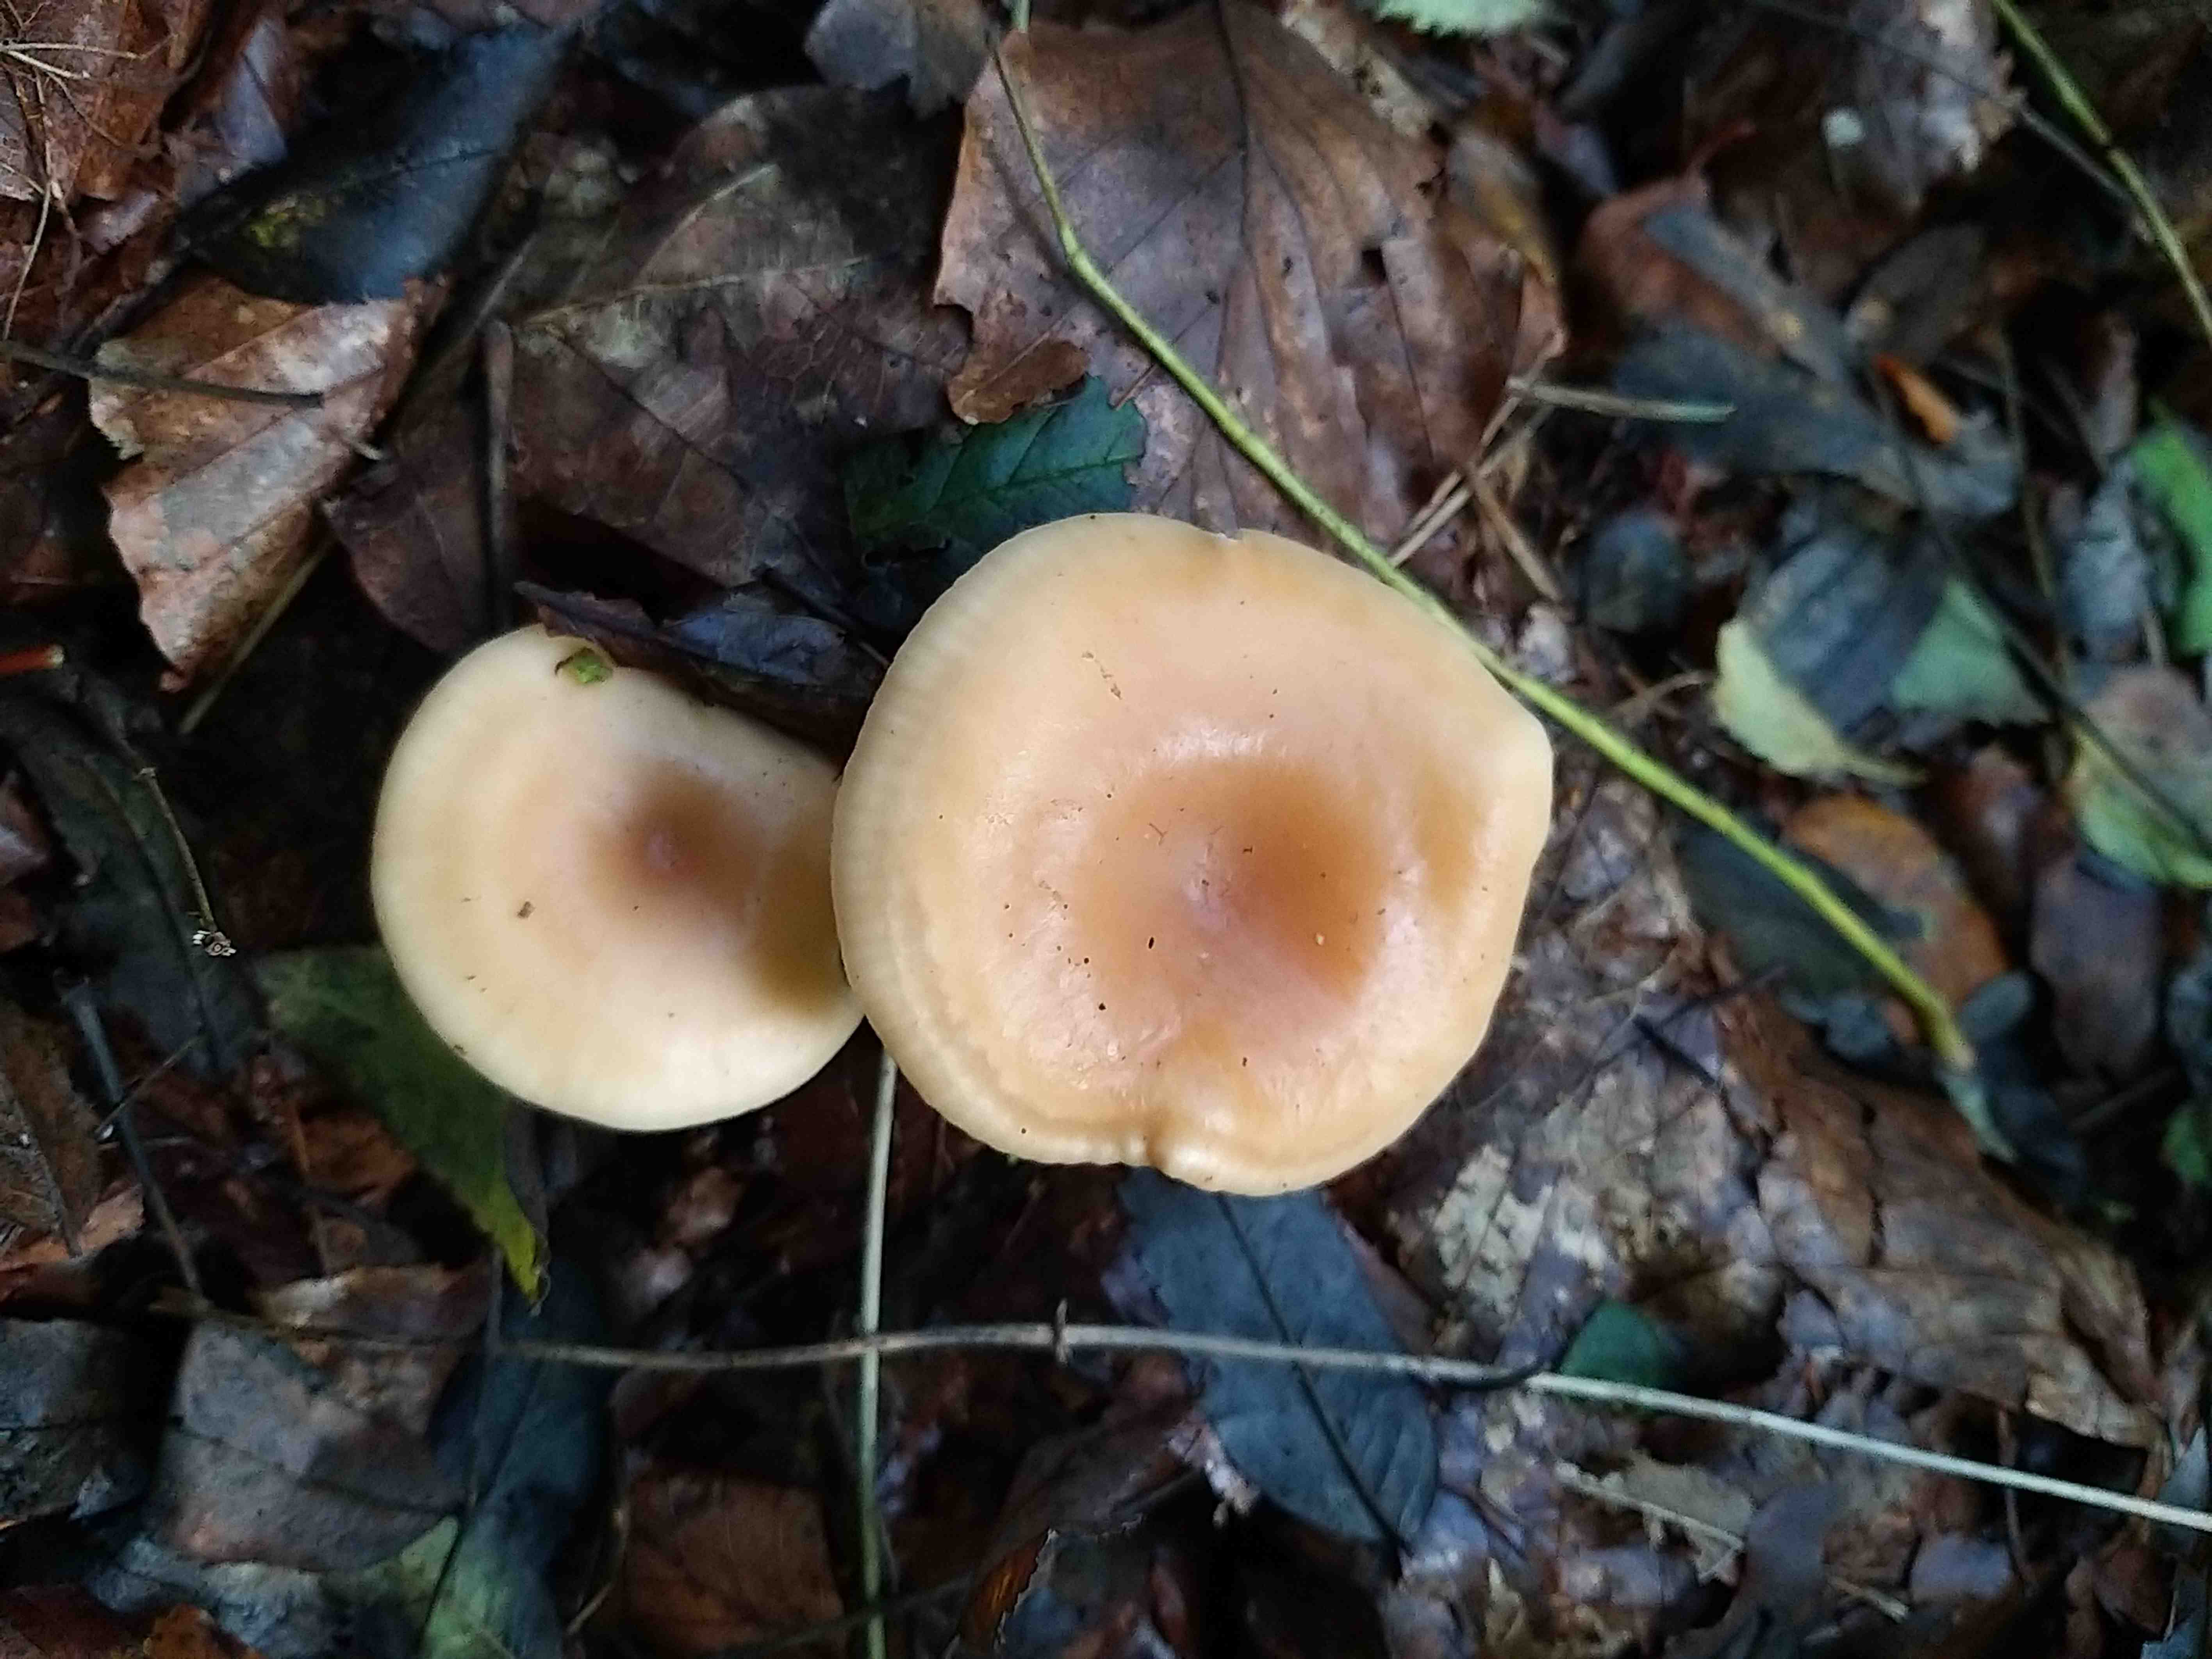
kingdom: Fungi
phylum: Basidiomycota
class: Agaricomycetes
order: Agaricales
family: Tricholomataceae
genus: Paralepista
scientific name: Paralepista flaccida
